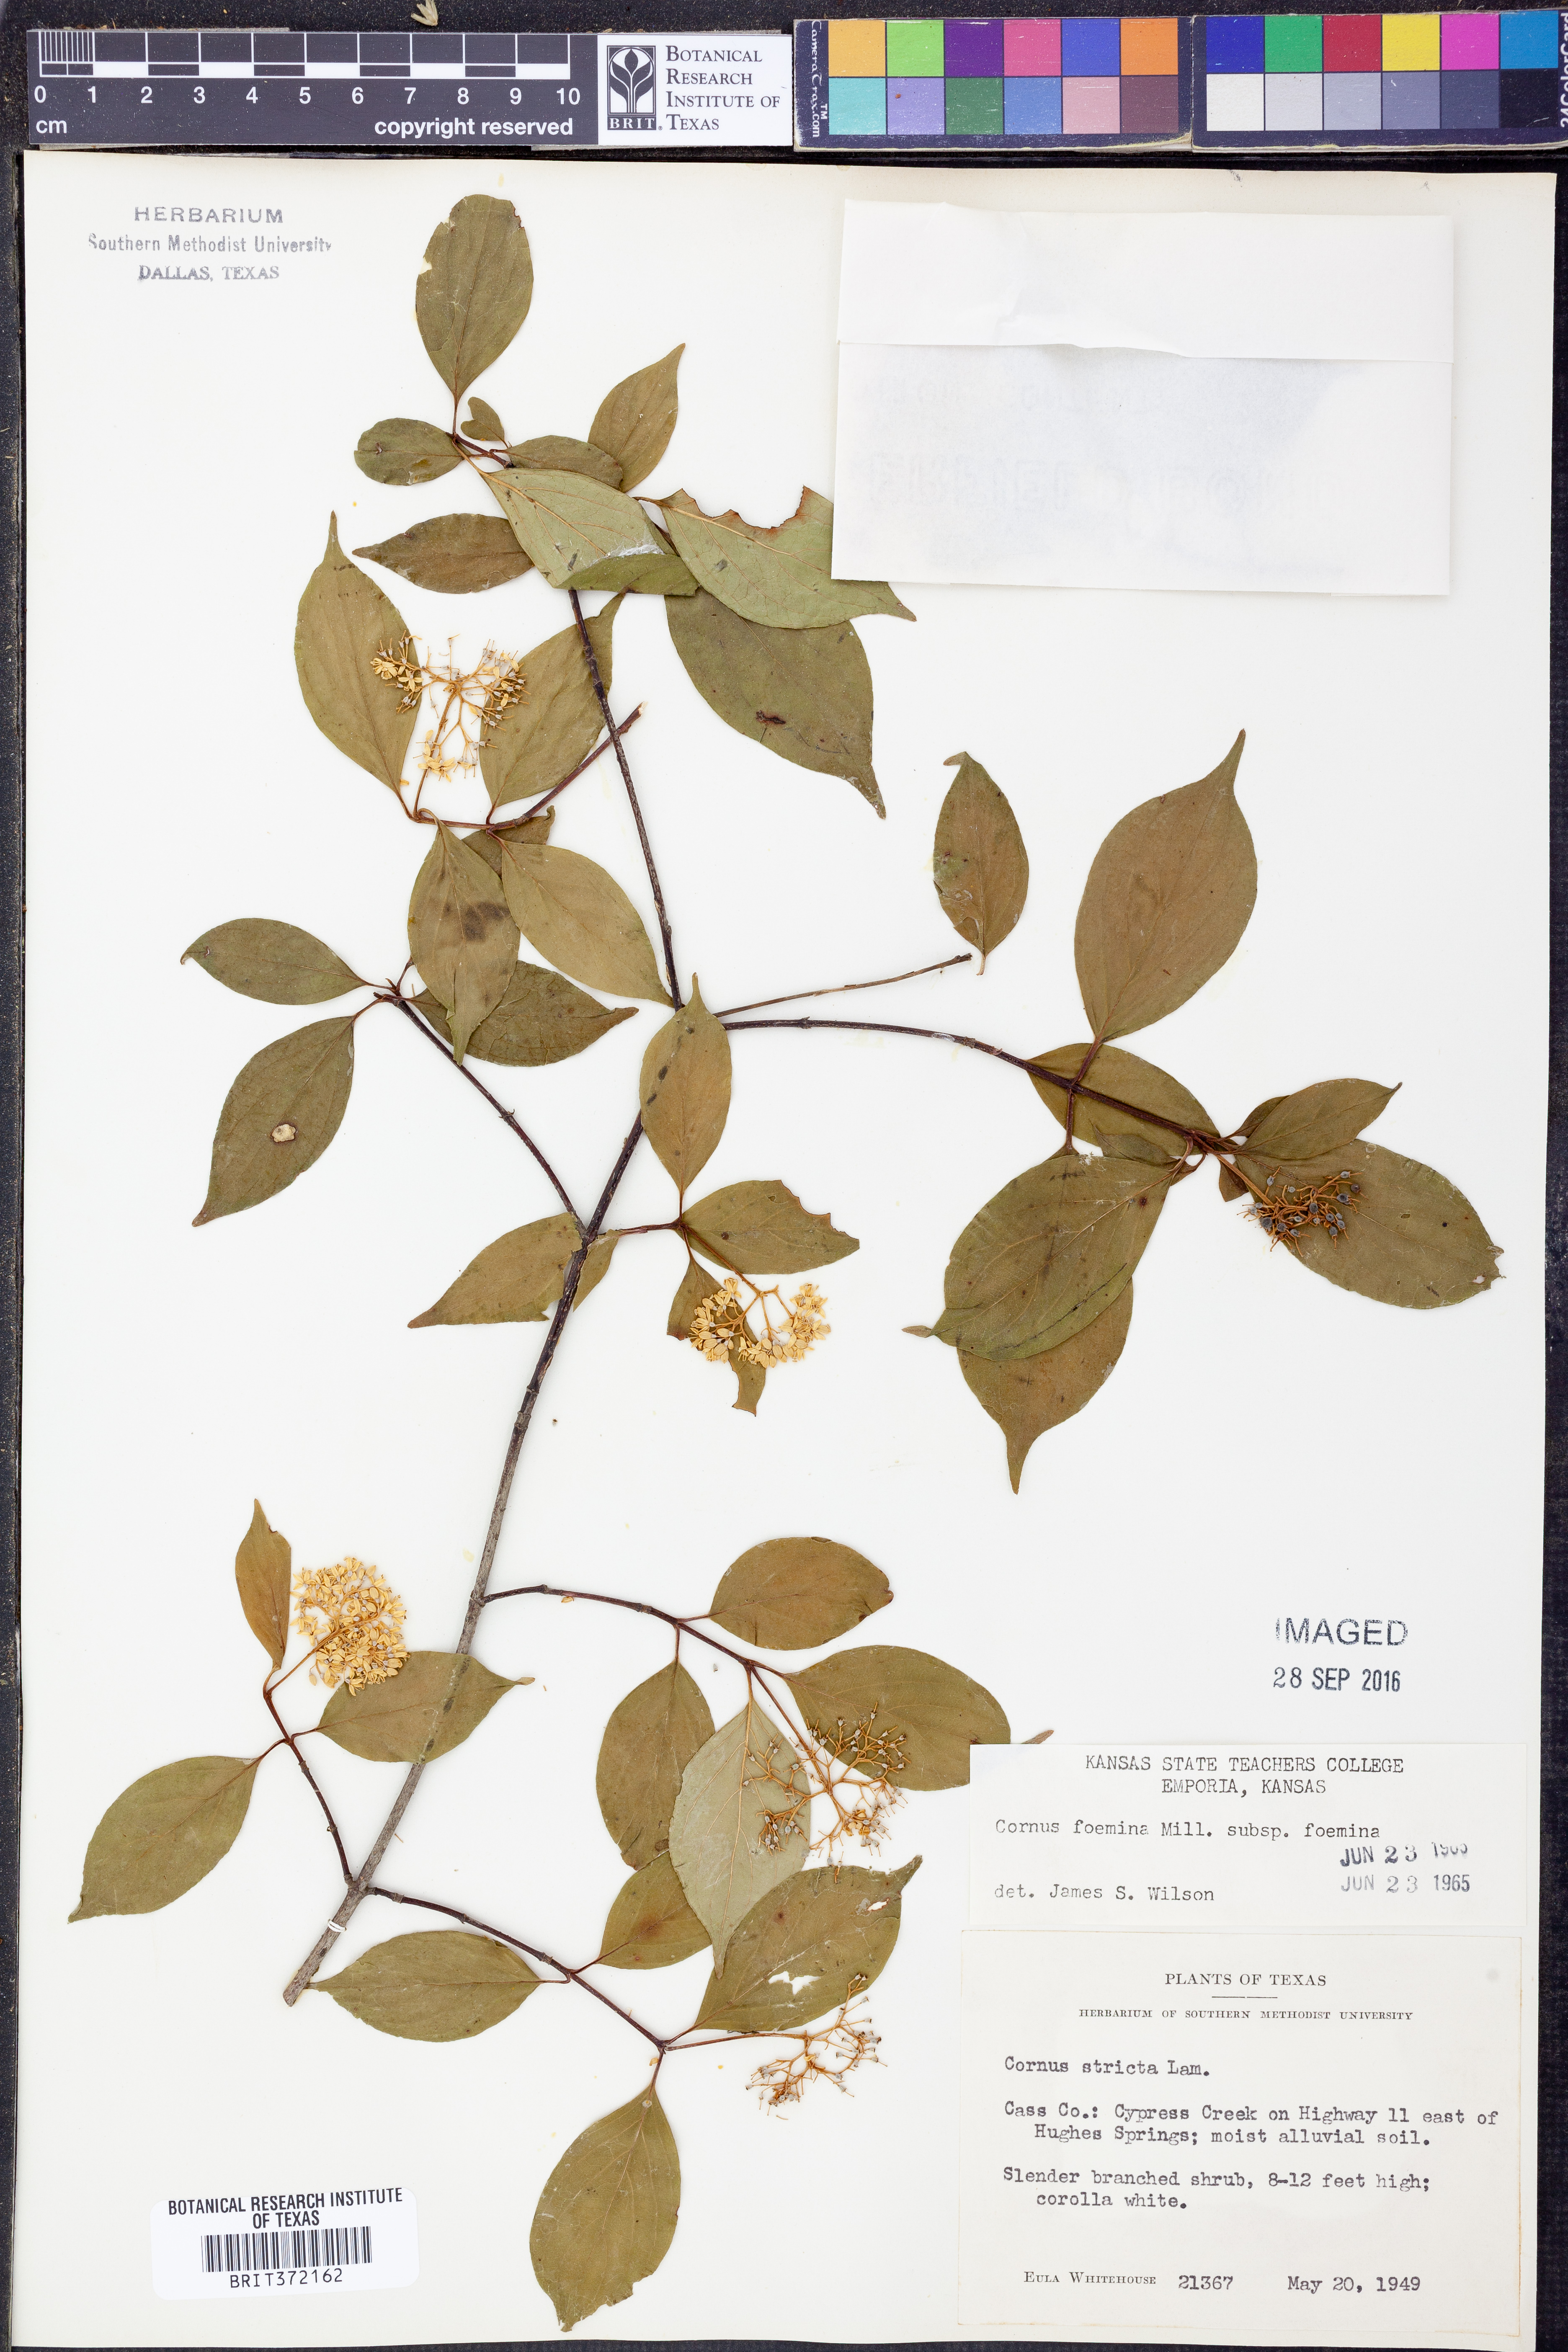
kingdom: Plantae
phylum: Tracheophyta
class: Magnoliopsida
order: Cornales
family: Cornaceae
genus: Cornus
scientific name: Cornus foemina
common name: Swamp dogwood
